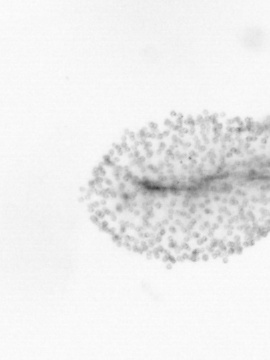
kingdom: Animalia
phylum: Chordata
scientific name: Chordata
